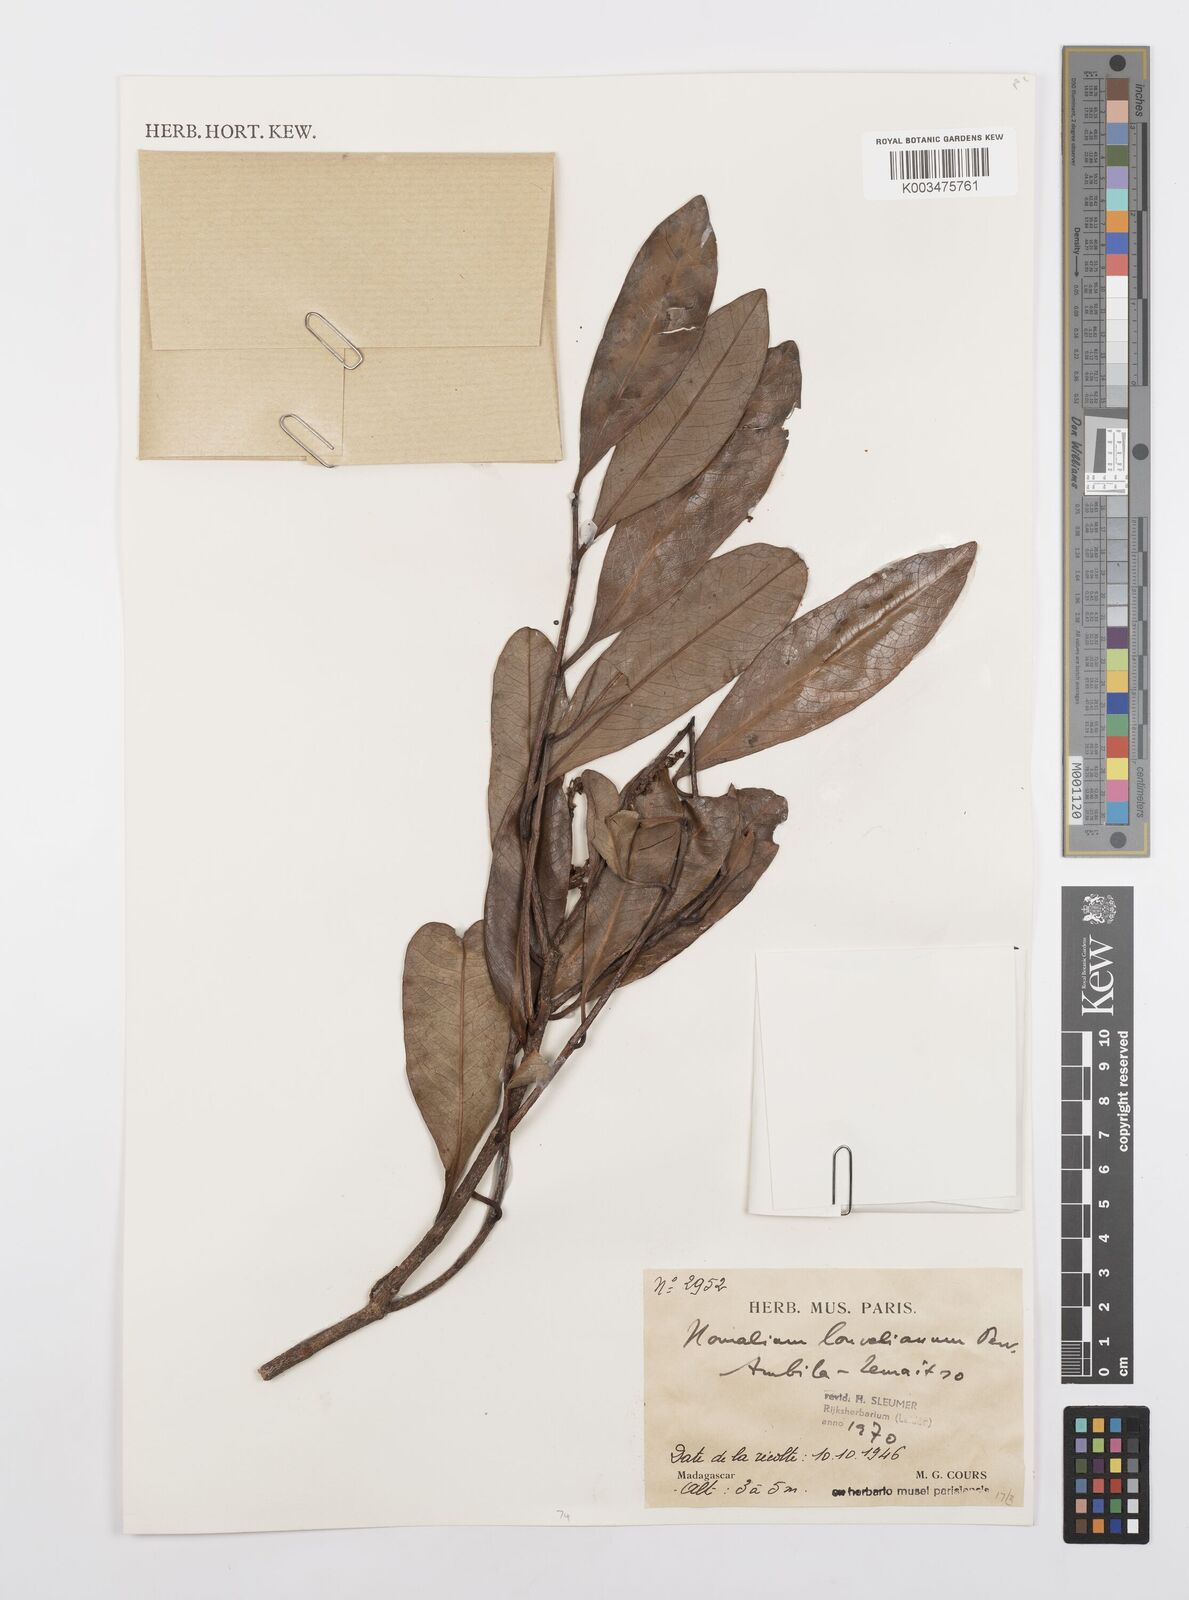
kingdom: Plantae
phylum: Tracheophyta
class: Magnoliopsida
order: Malpighiales
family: Salicaceae
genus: Homalium
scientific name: Homalium louvelianum
